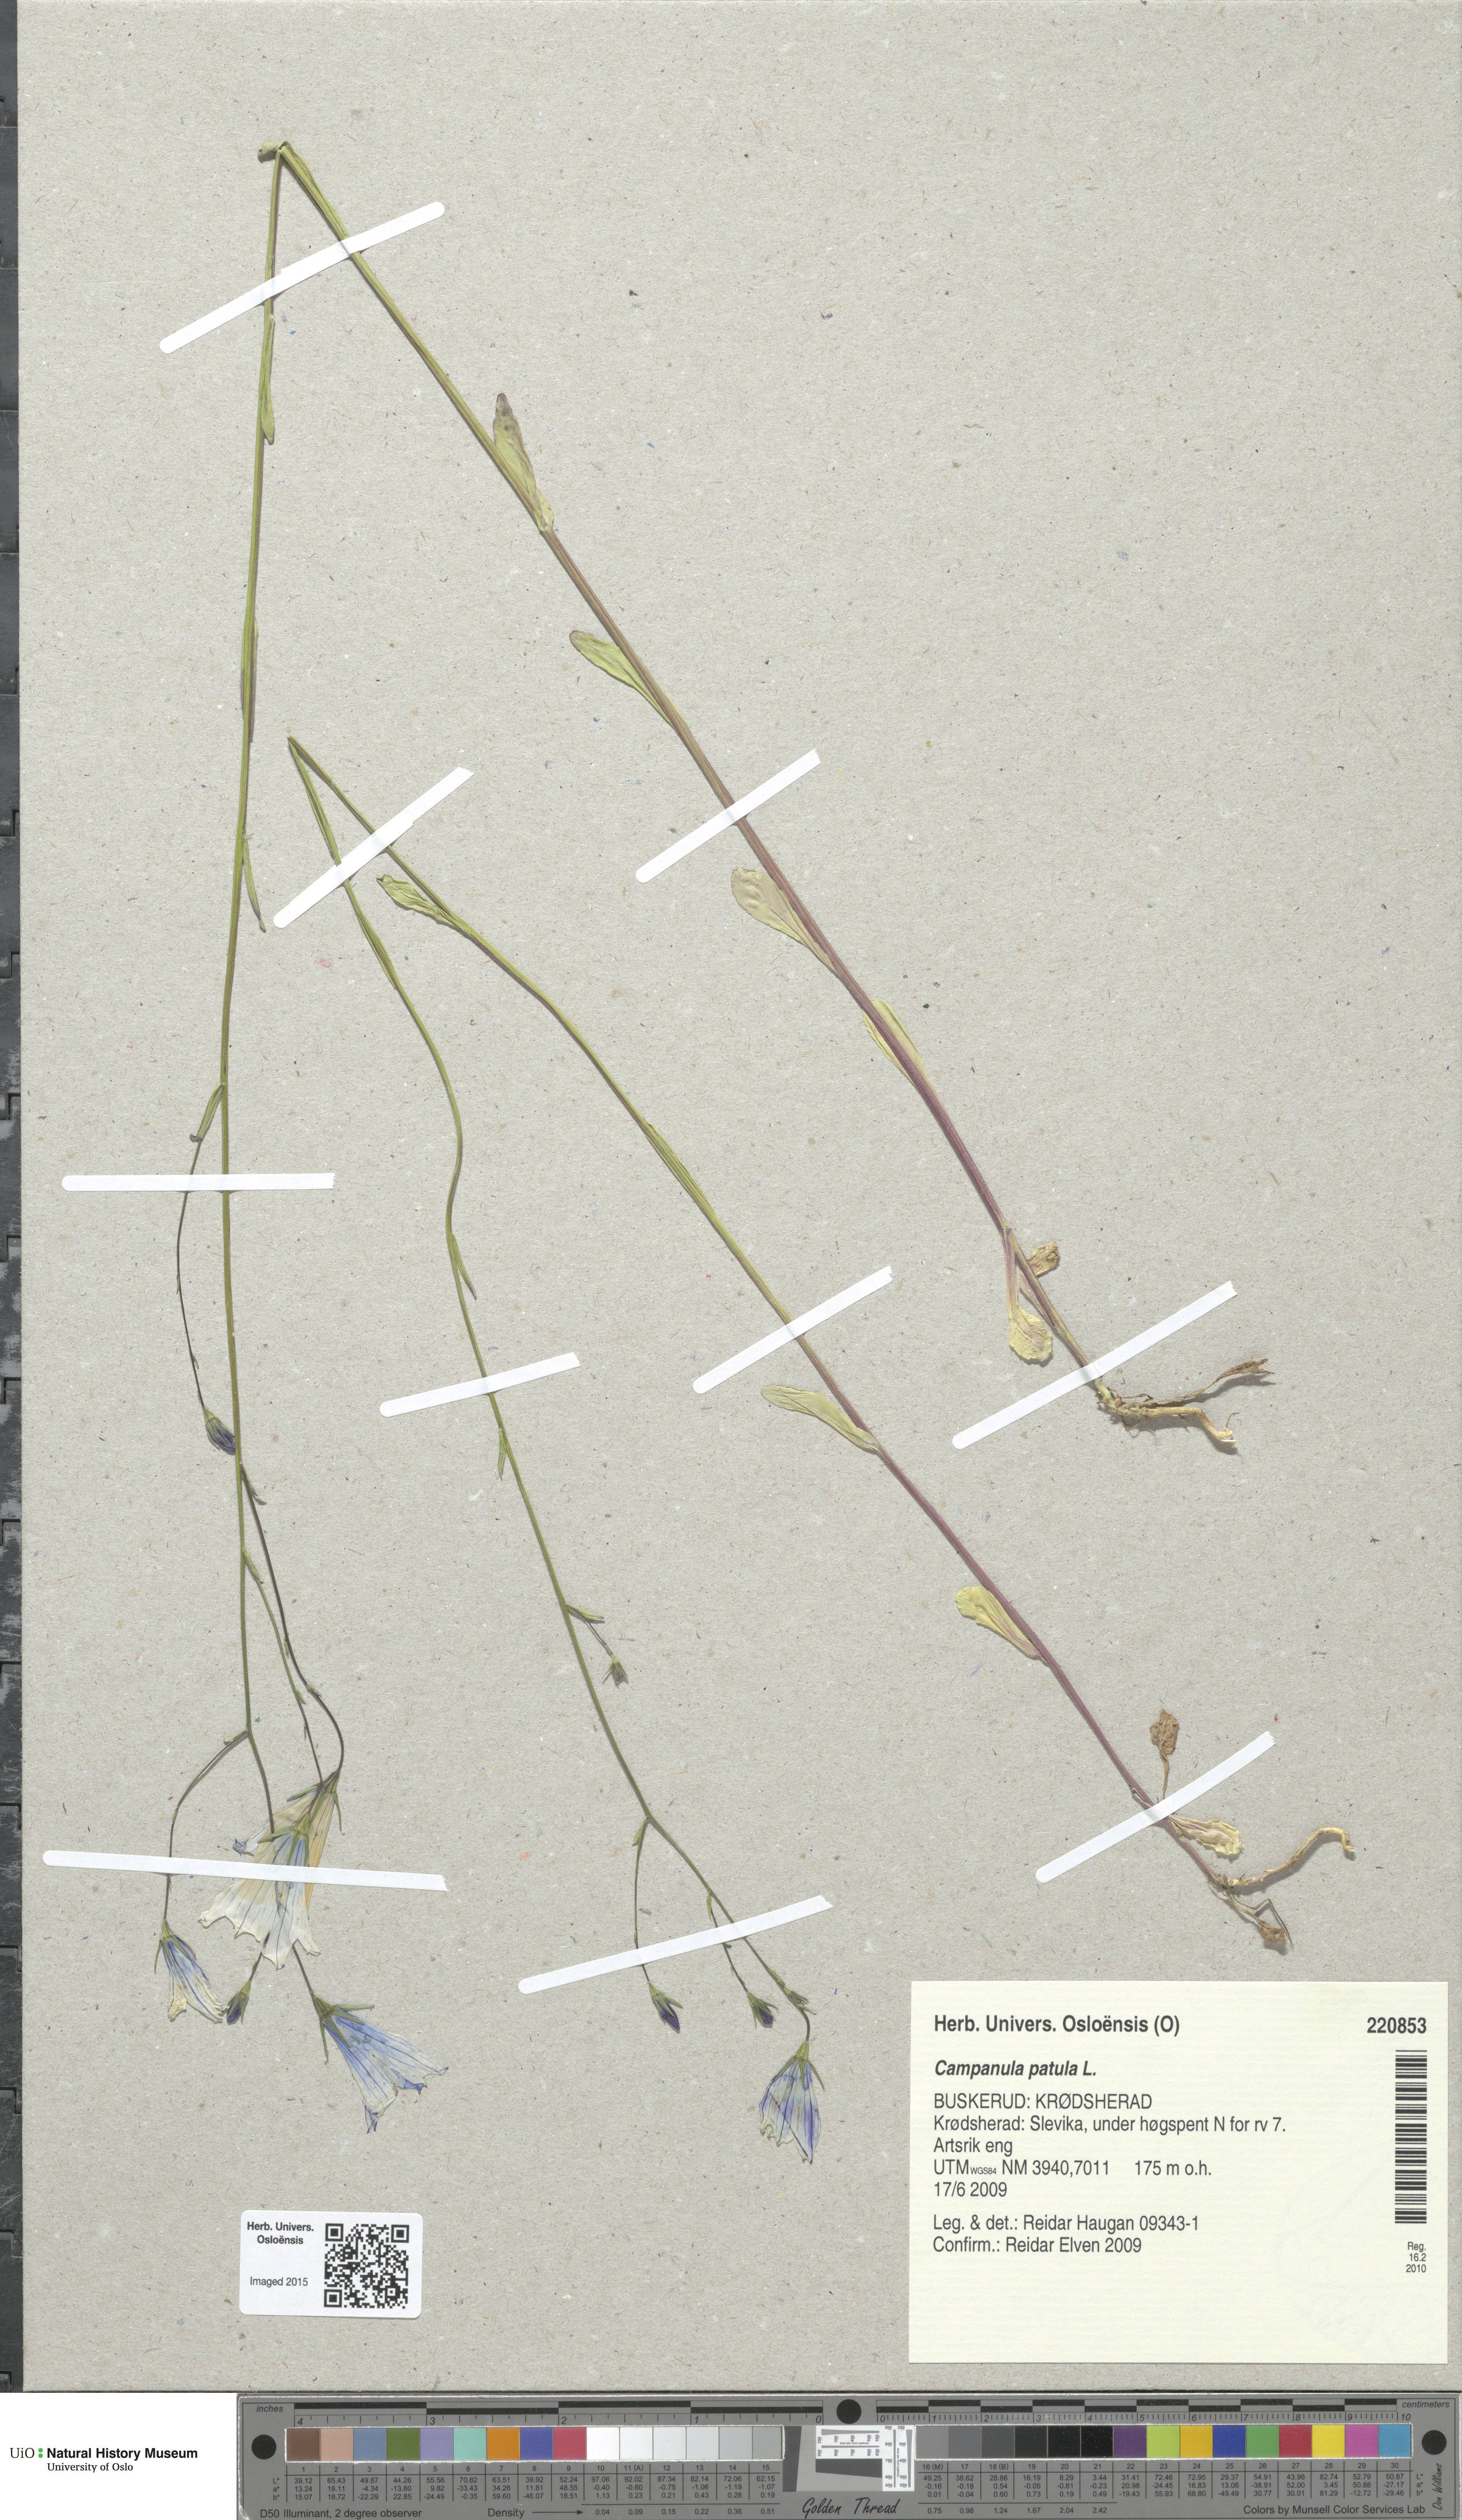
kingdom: Plantae
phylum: Tracheophyta
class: Magnoliopsida
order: Asterales
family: Campanulaceae
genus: Campanula
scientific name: Campanula patula
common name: Spreading bellflower
